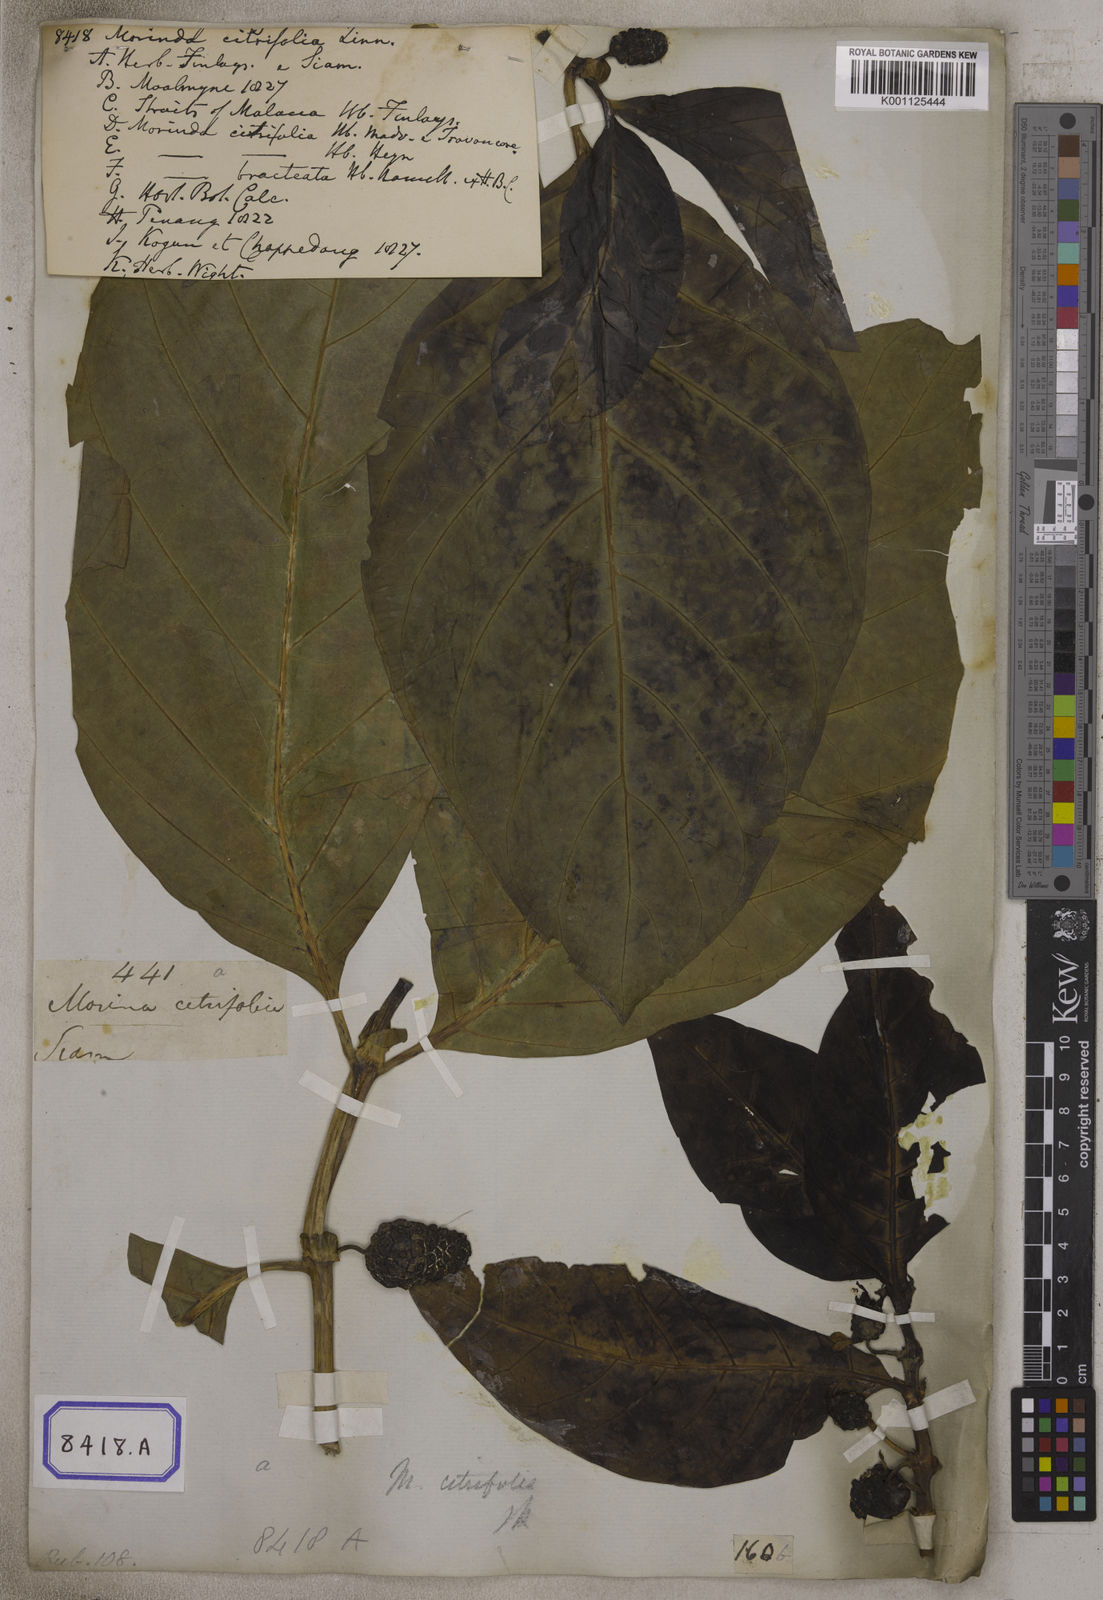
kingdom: Plantae
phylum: Tracheophyta
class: Magnoliopsida
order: Gentianales
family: Rubiaceae
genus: Morinda
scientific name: Morinda citrifolia
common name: Indian-mulberry
